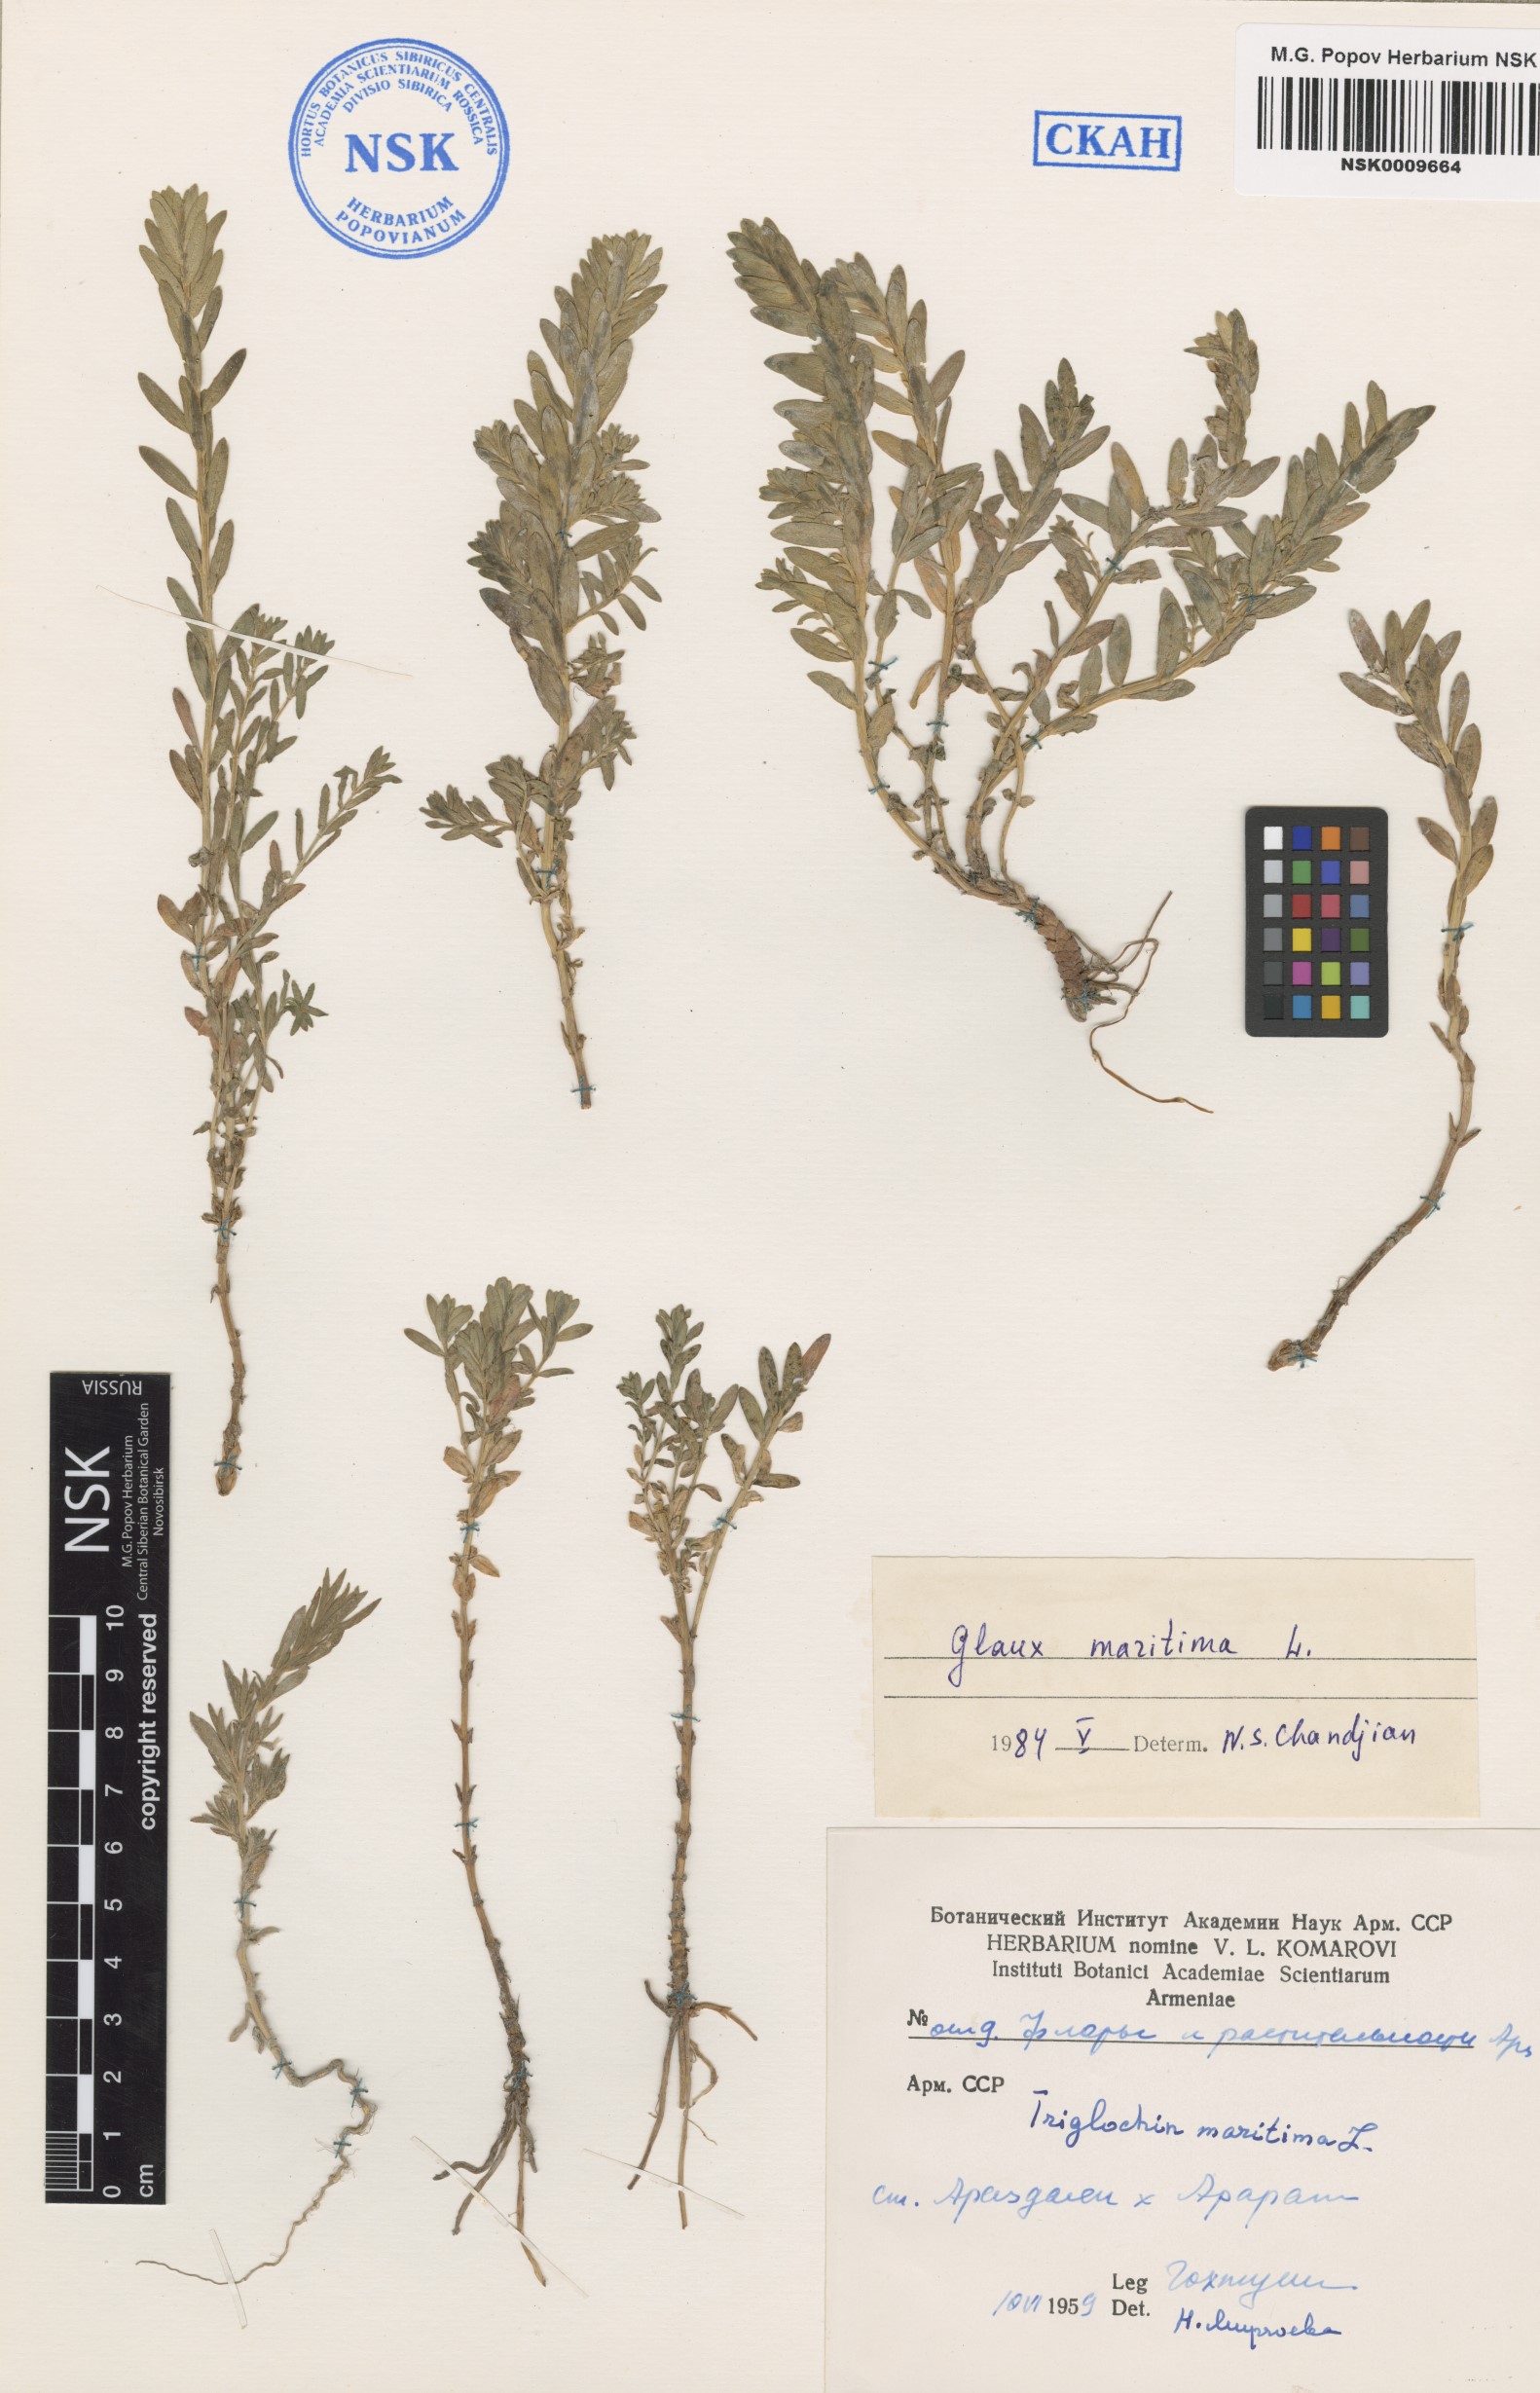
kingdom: Plantae
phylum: Tracheophyta
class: Magnoliopsida
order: Ericales
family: Primulaceae
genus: Lysimachia
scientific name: Lysimachia maritima
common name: Sea milkwort
